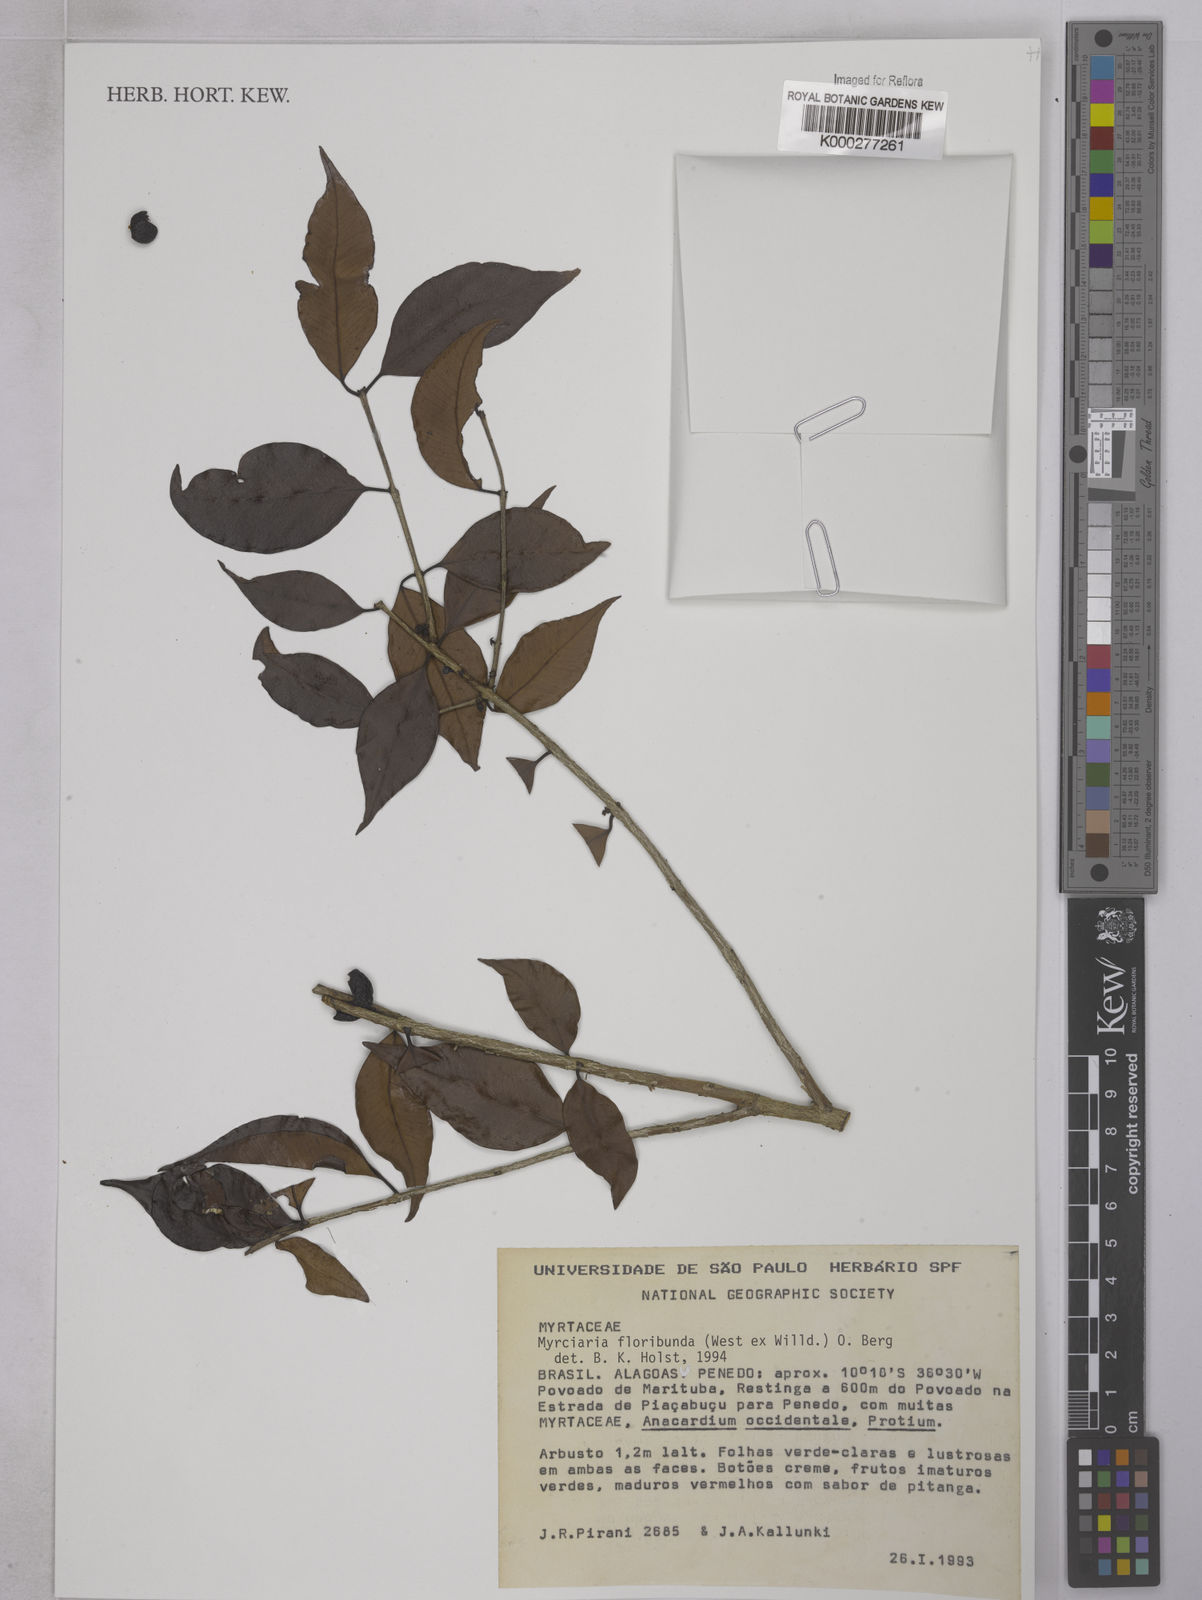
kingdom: Plantae
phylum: Tracheophyta
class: Magnoliopsida
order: Myrtales
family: Myrtaceae
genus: Myrciaria
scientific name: Myrciaria floribunda
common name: Guavaberry
